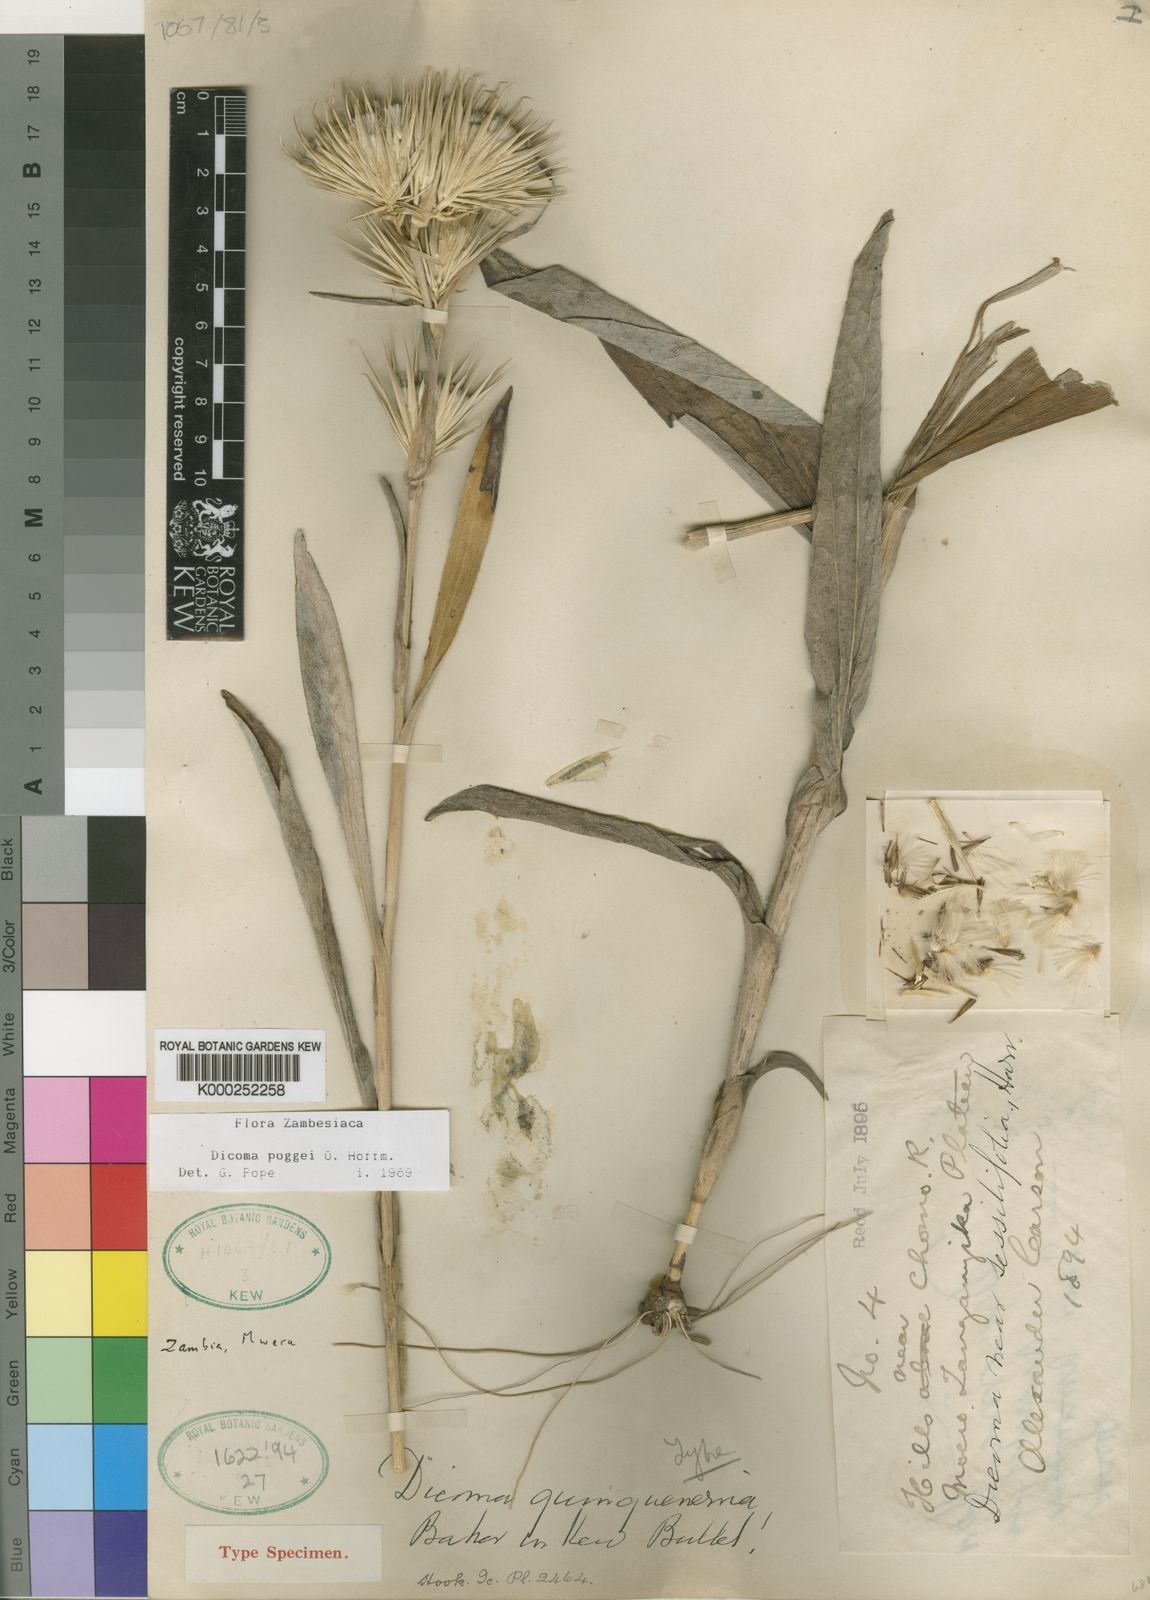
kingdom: Plantae
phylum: Tracheophyta
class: Magnoliopsida
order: Asterales
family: Asteraceae
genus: Macledium
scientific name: Macledium poggei
